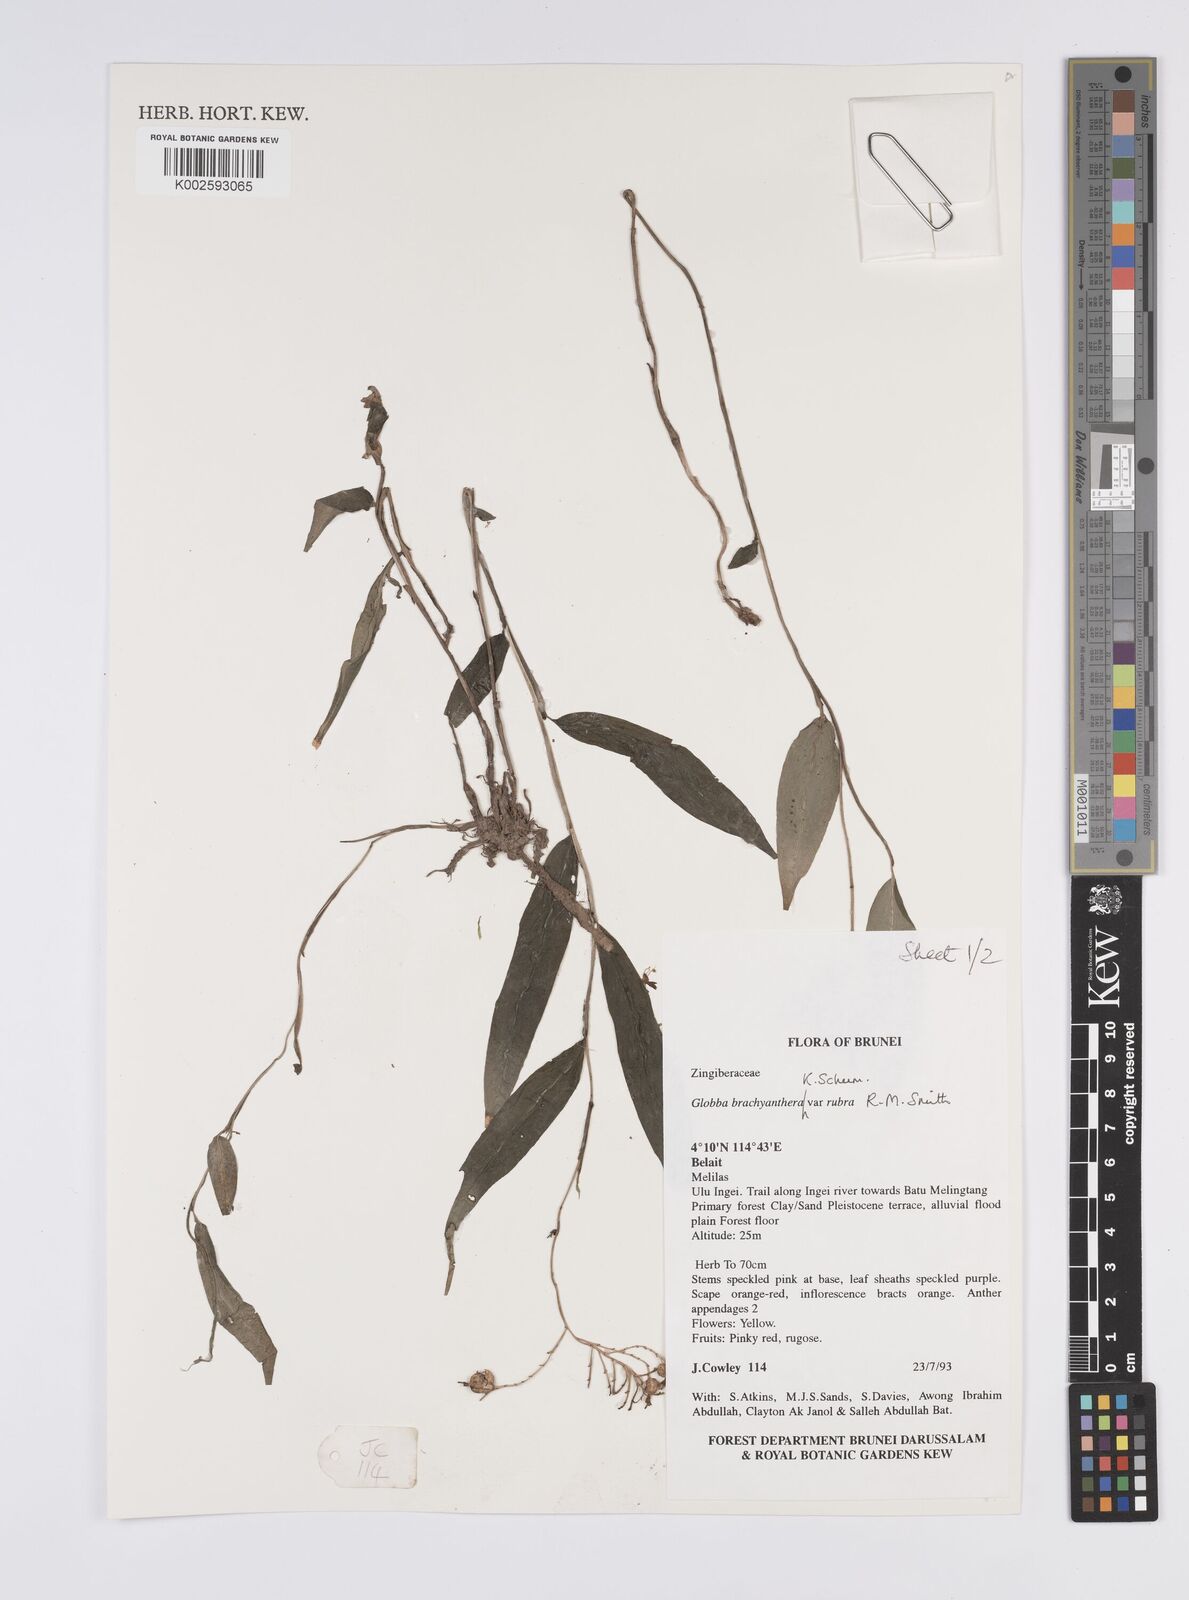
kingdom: Plantae
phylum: Tracheophyta
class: Liliopsida
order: Zingiberales
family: Zingiberaceae
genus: Globba
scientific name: Globba brachyanthera
